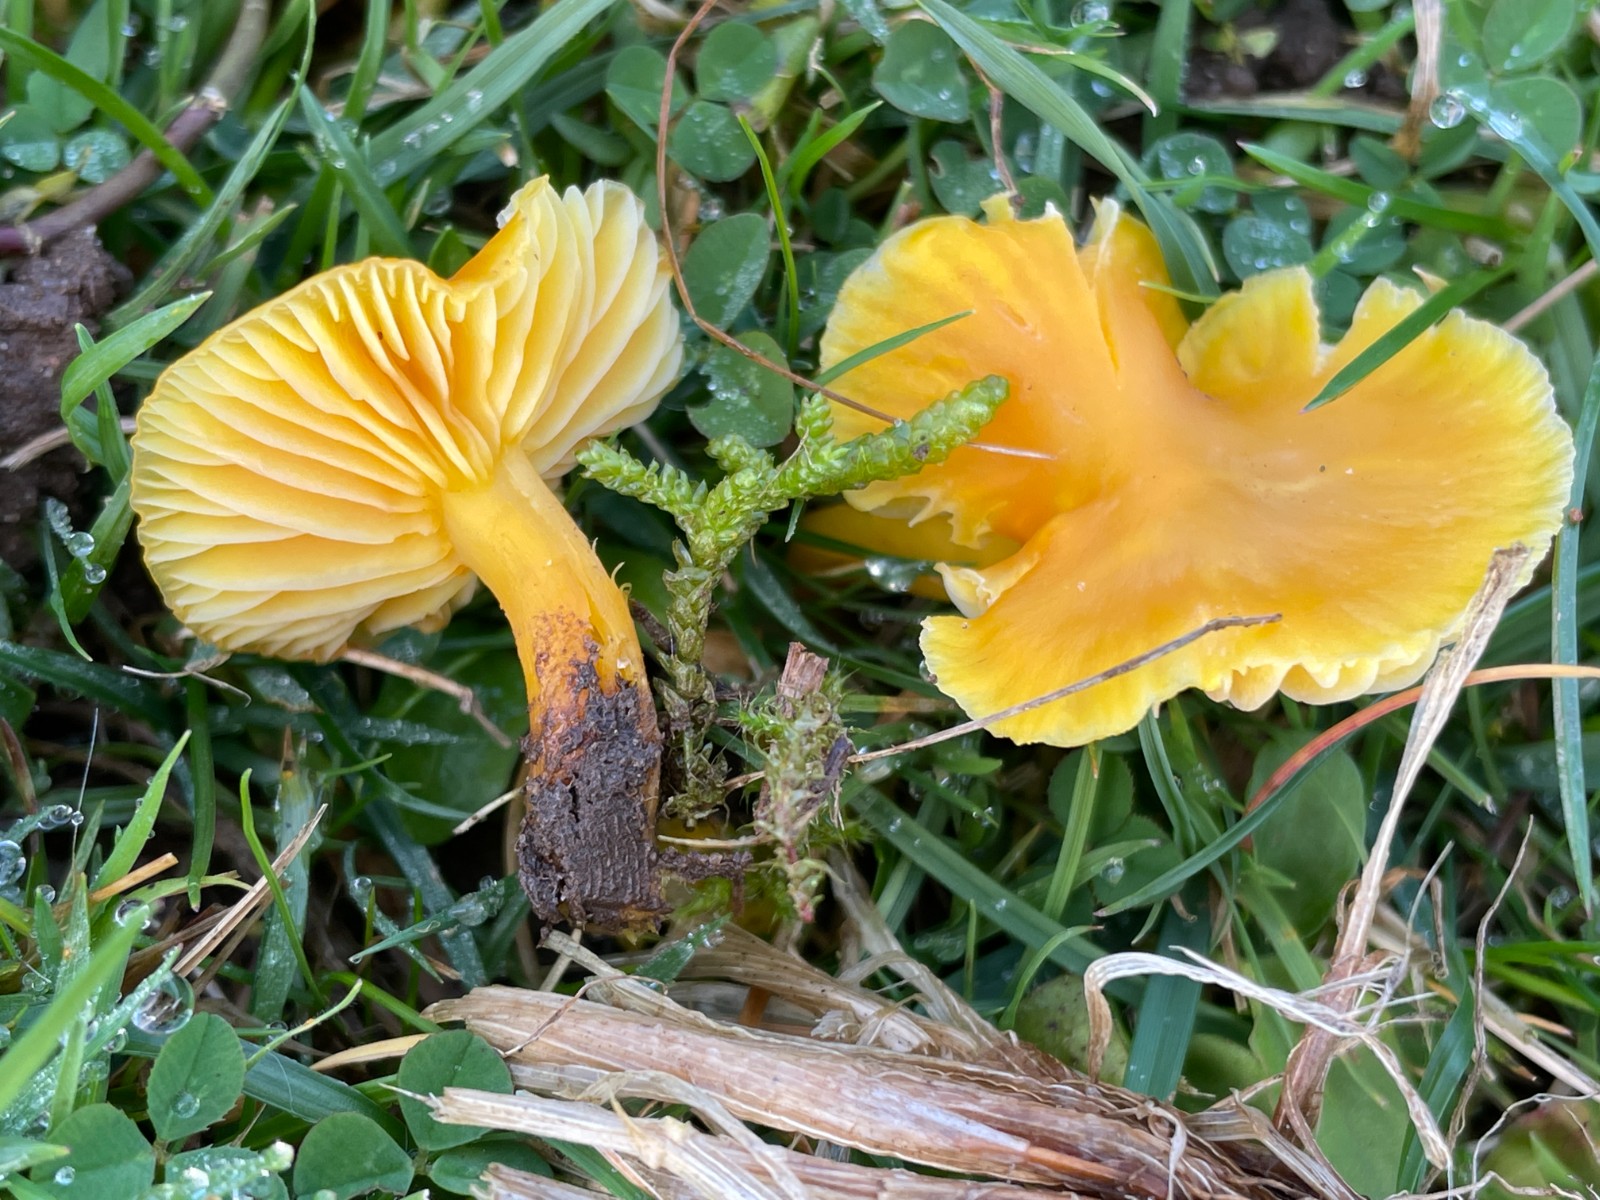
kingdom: Fungi
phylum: Basidiomycota
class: Agaricomycetes
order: Agaricales
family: Hygrophoraceae
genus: Hygrocybe
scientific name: Hygrocybe chlorophana
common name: gul vokshat
